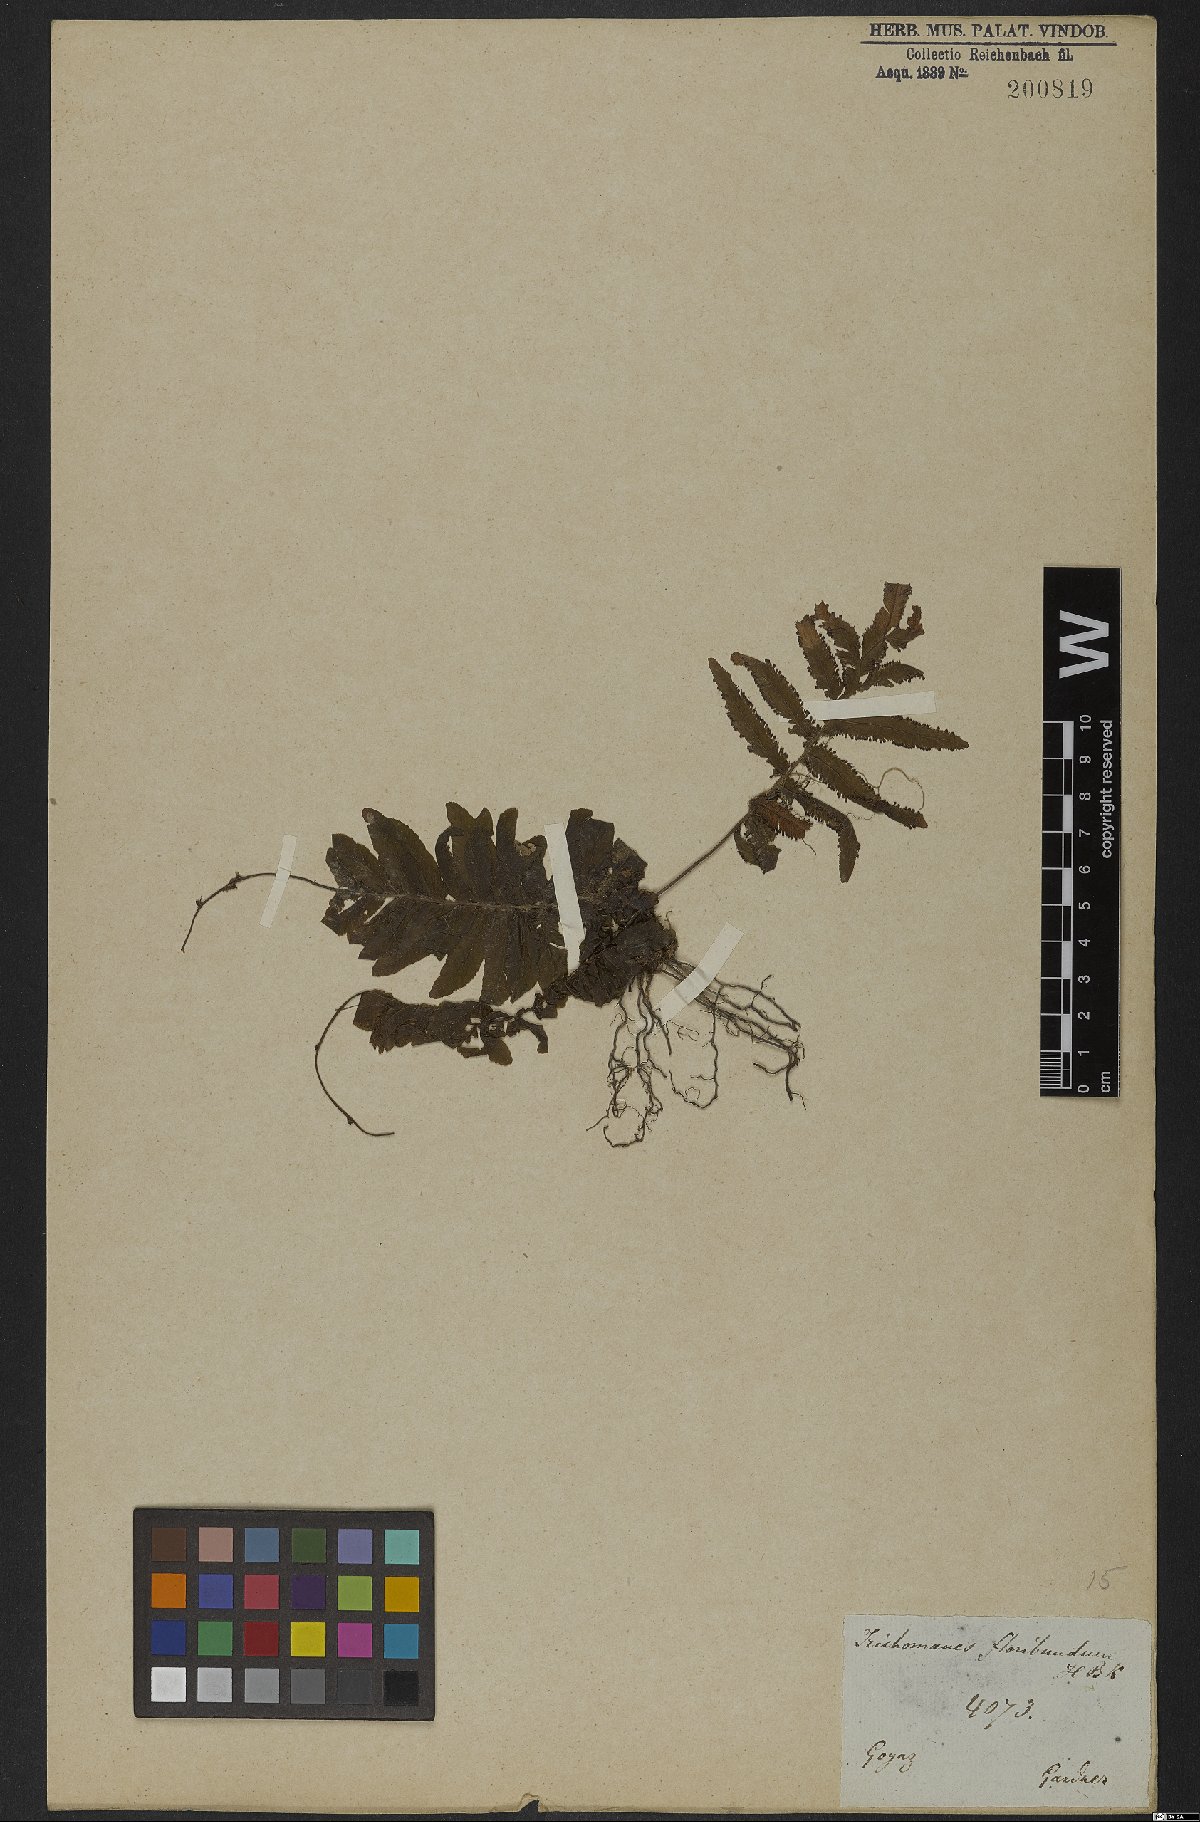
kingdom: Plantae
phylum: Tracheophyta
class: Polypodiopsida
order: Hymenophyllales
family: Hymenophyllaceae
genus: Trichomanes
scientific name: Trichomanes pinnatum
